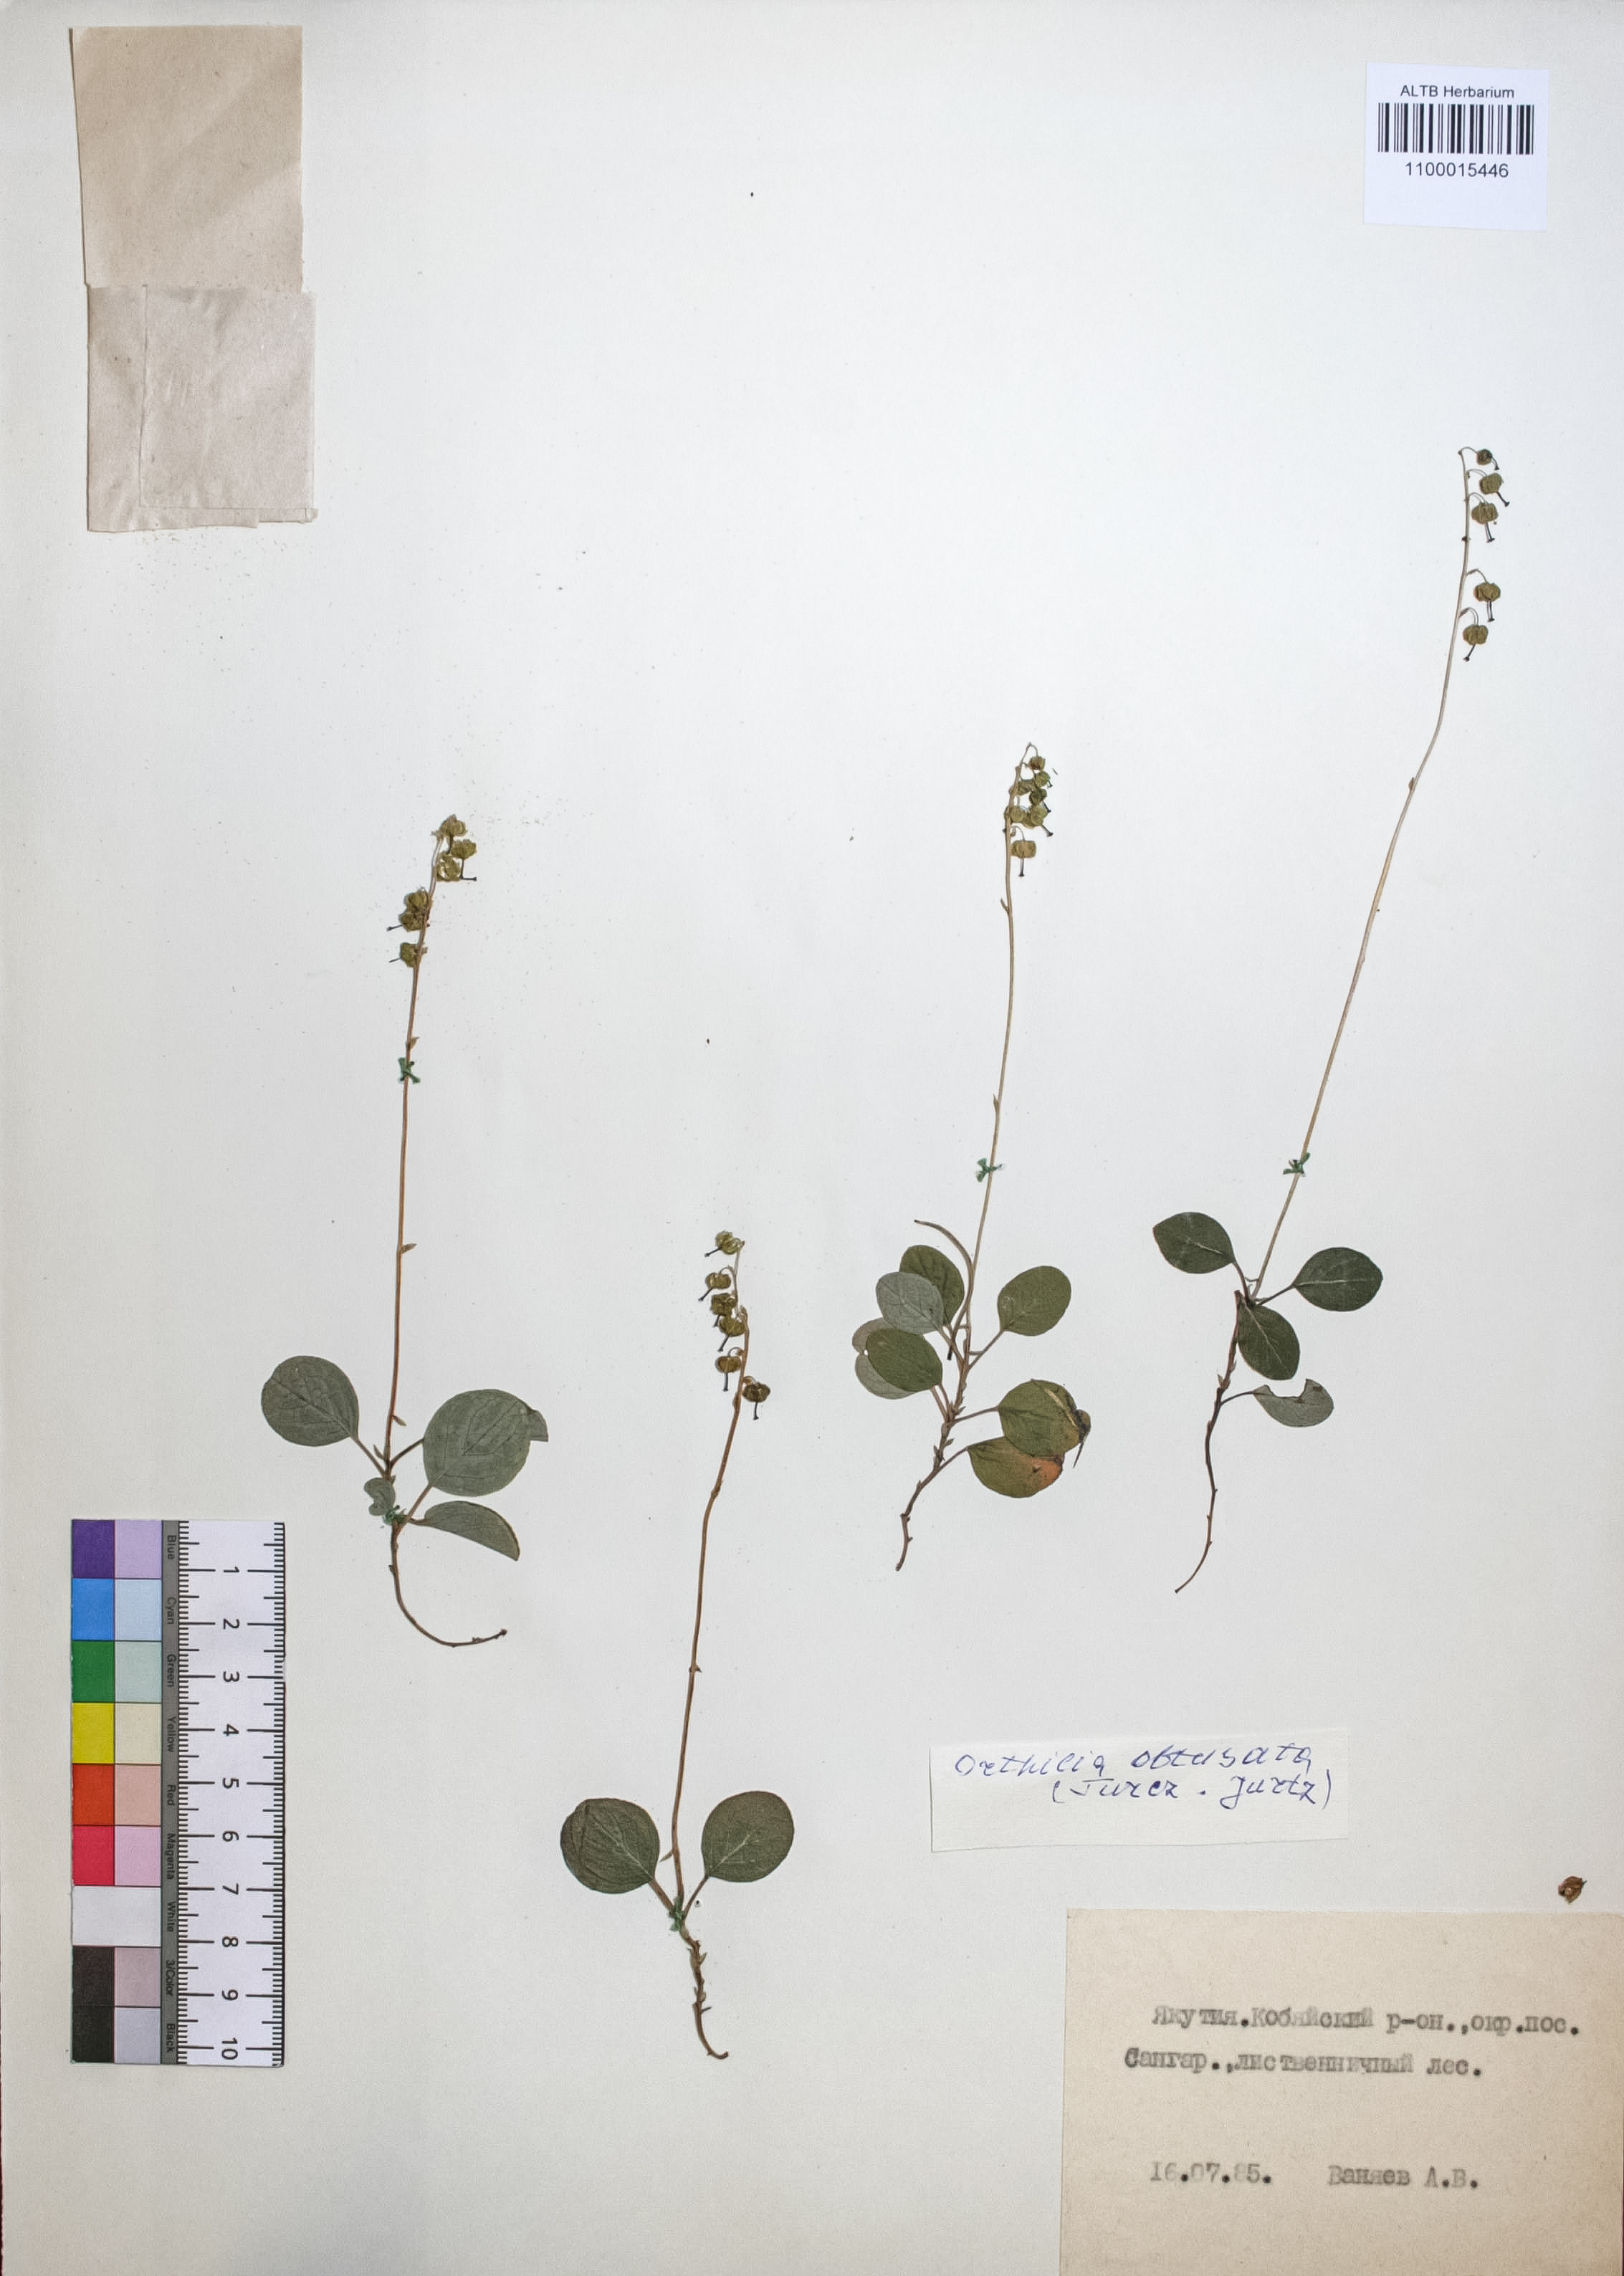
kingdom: Plantae
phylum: Tracheophyta
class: Magnoliopsida
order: Ericales
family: Ericaceae
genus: Orthilia
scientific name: Orthilia secunda
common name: One-sided orthilia
